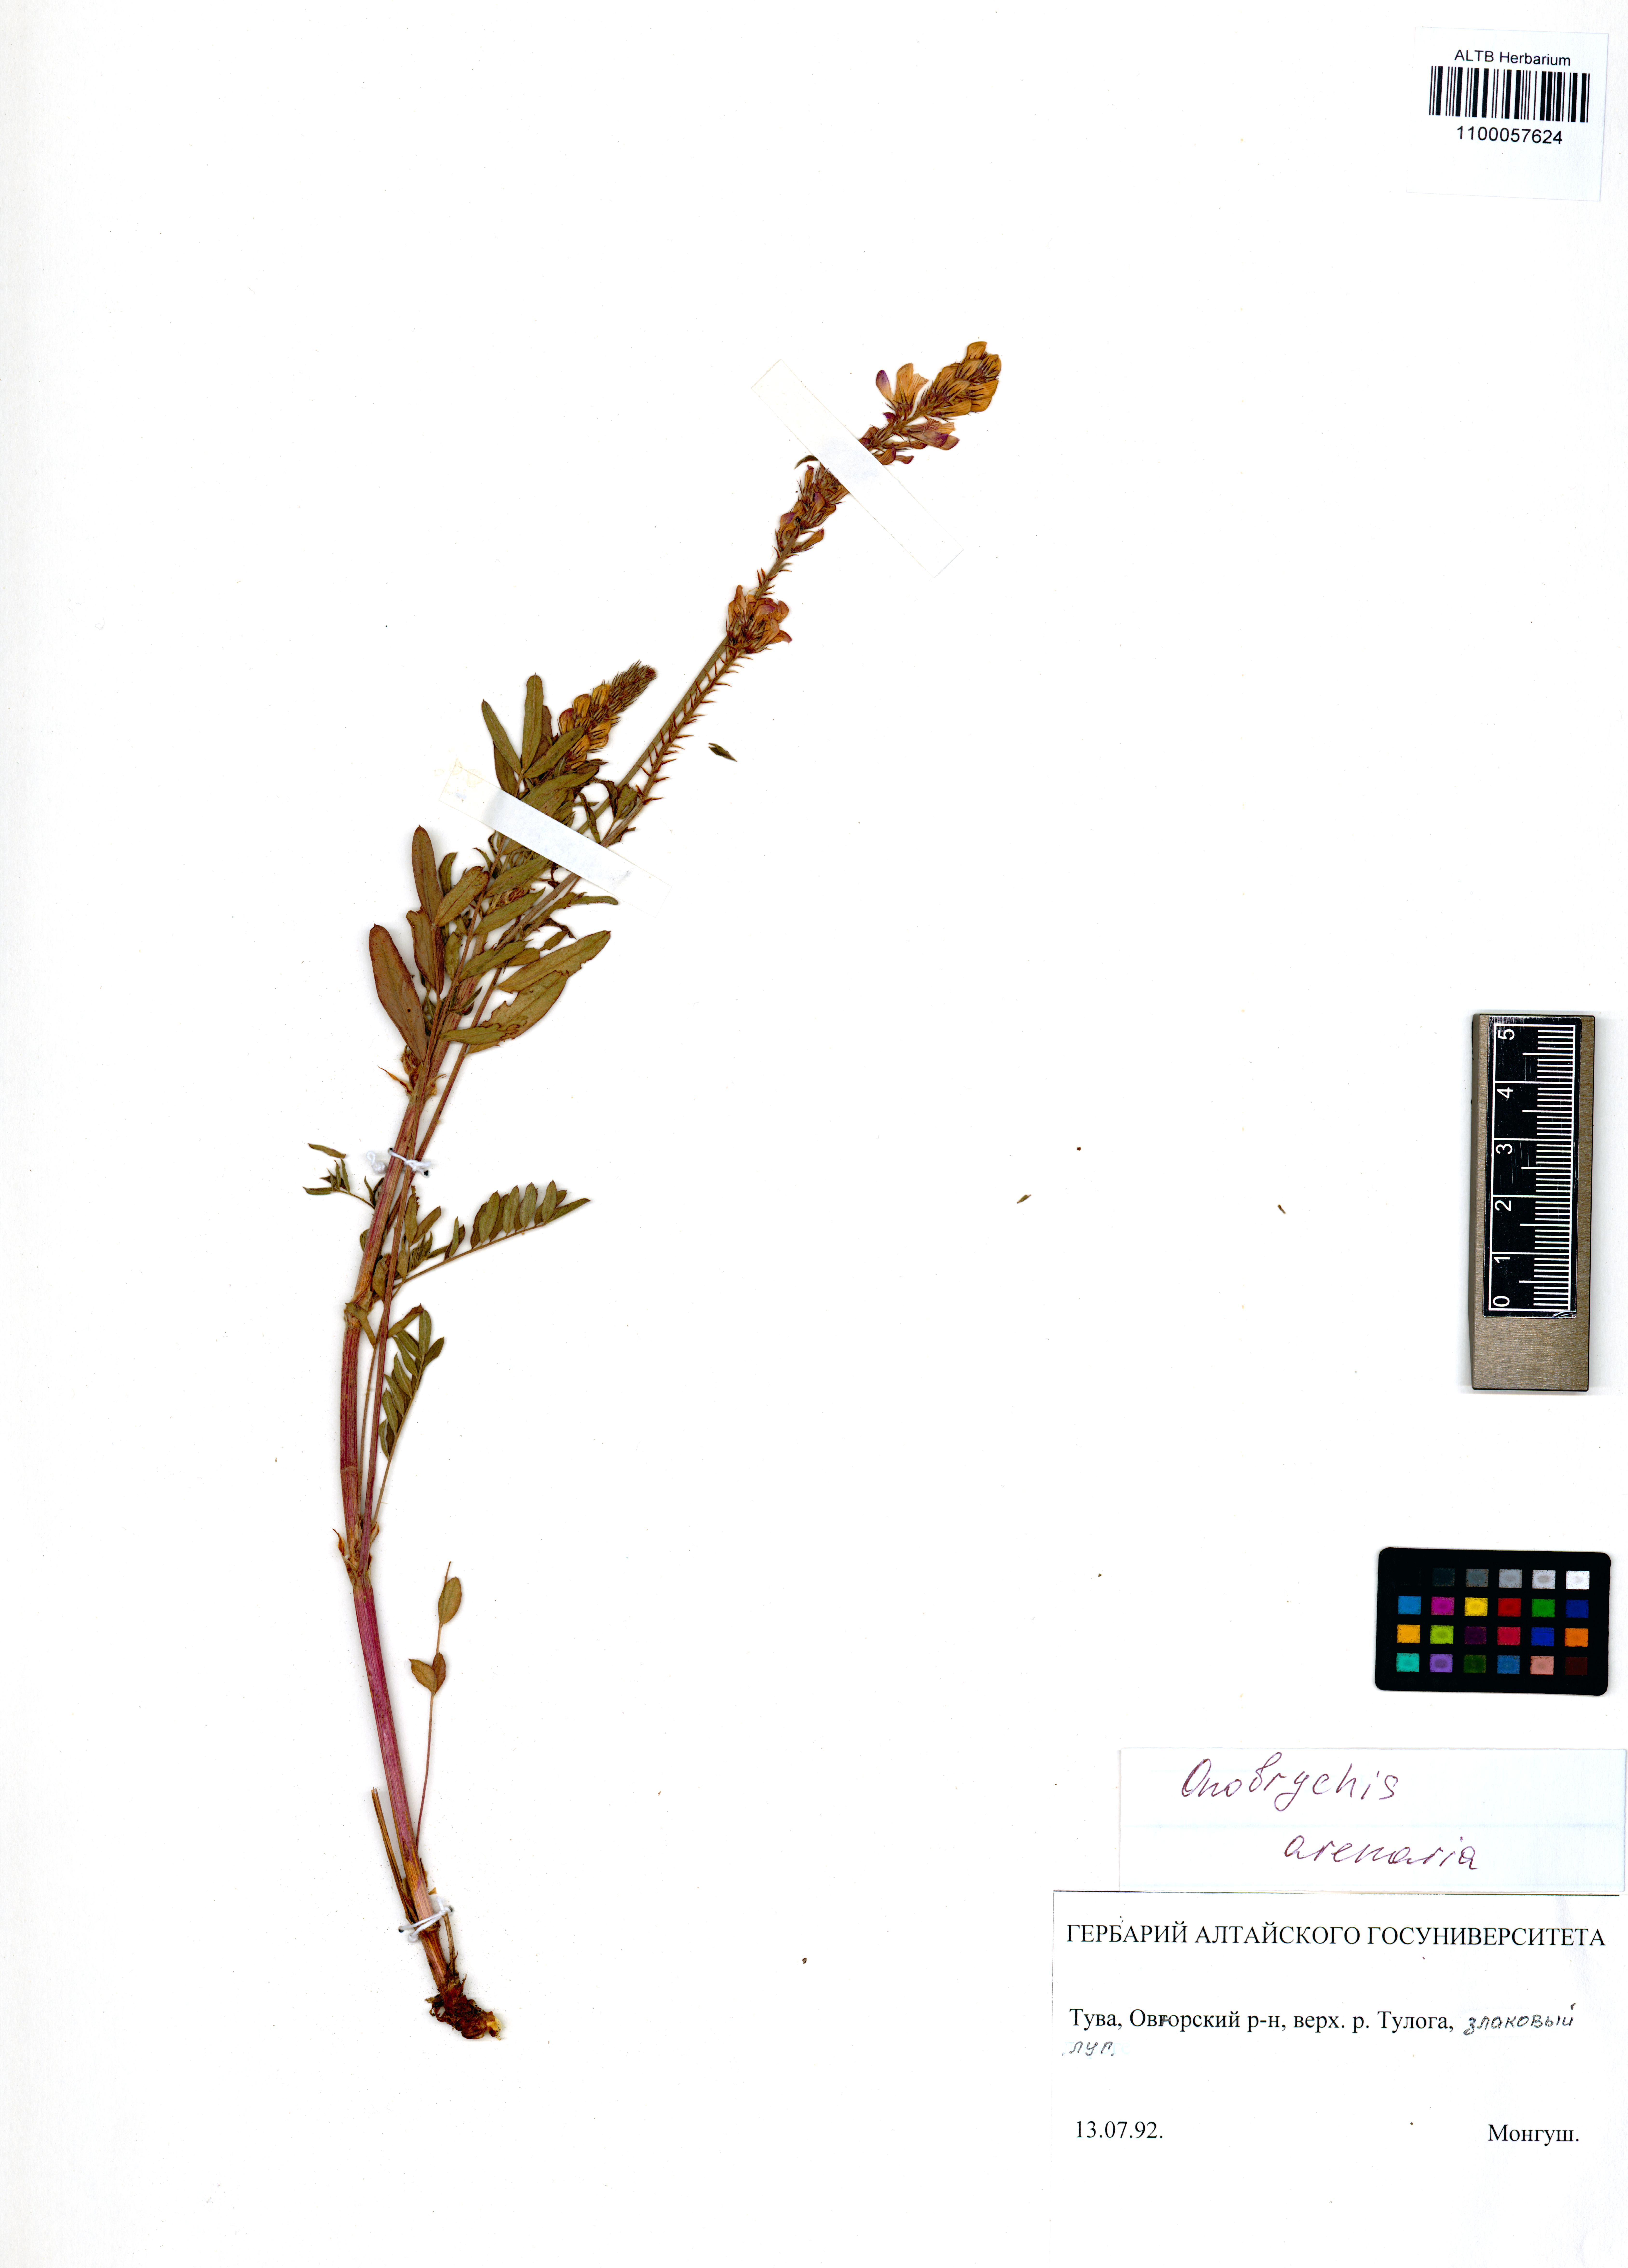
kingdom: Plantae
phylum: Tracheophyta
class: Magnoliopsida
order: Fabales
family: Fabaceae
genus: Onobrychis
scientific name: Onobrychis arenaria
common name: Sand esparcet
